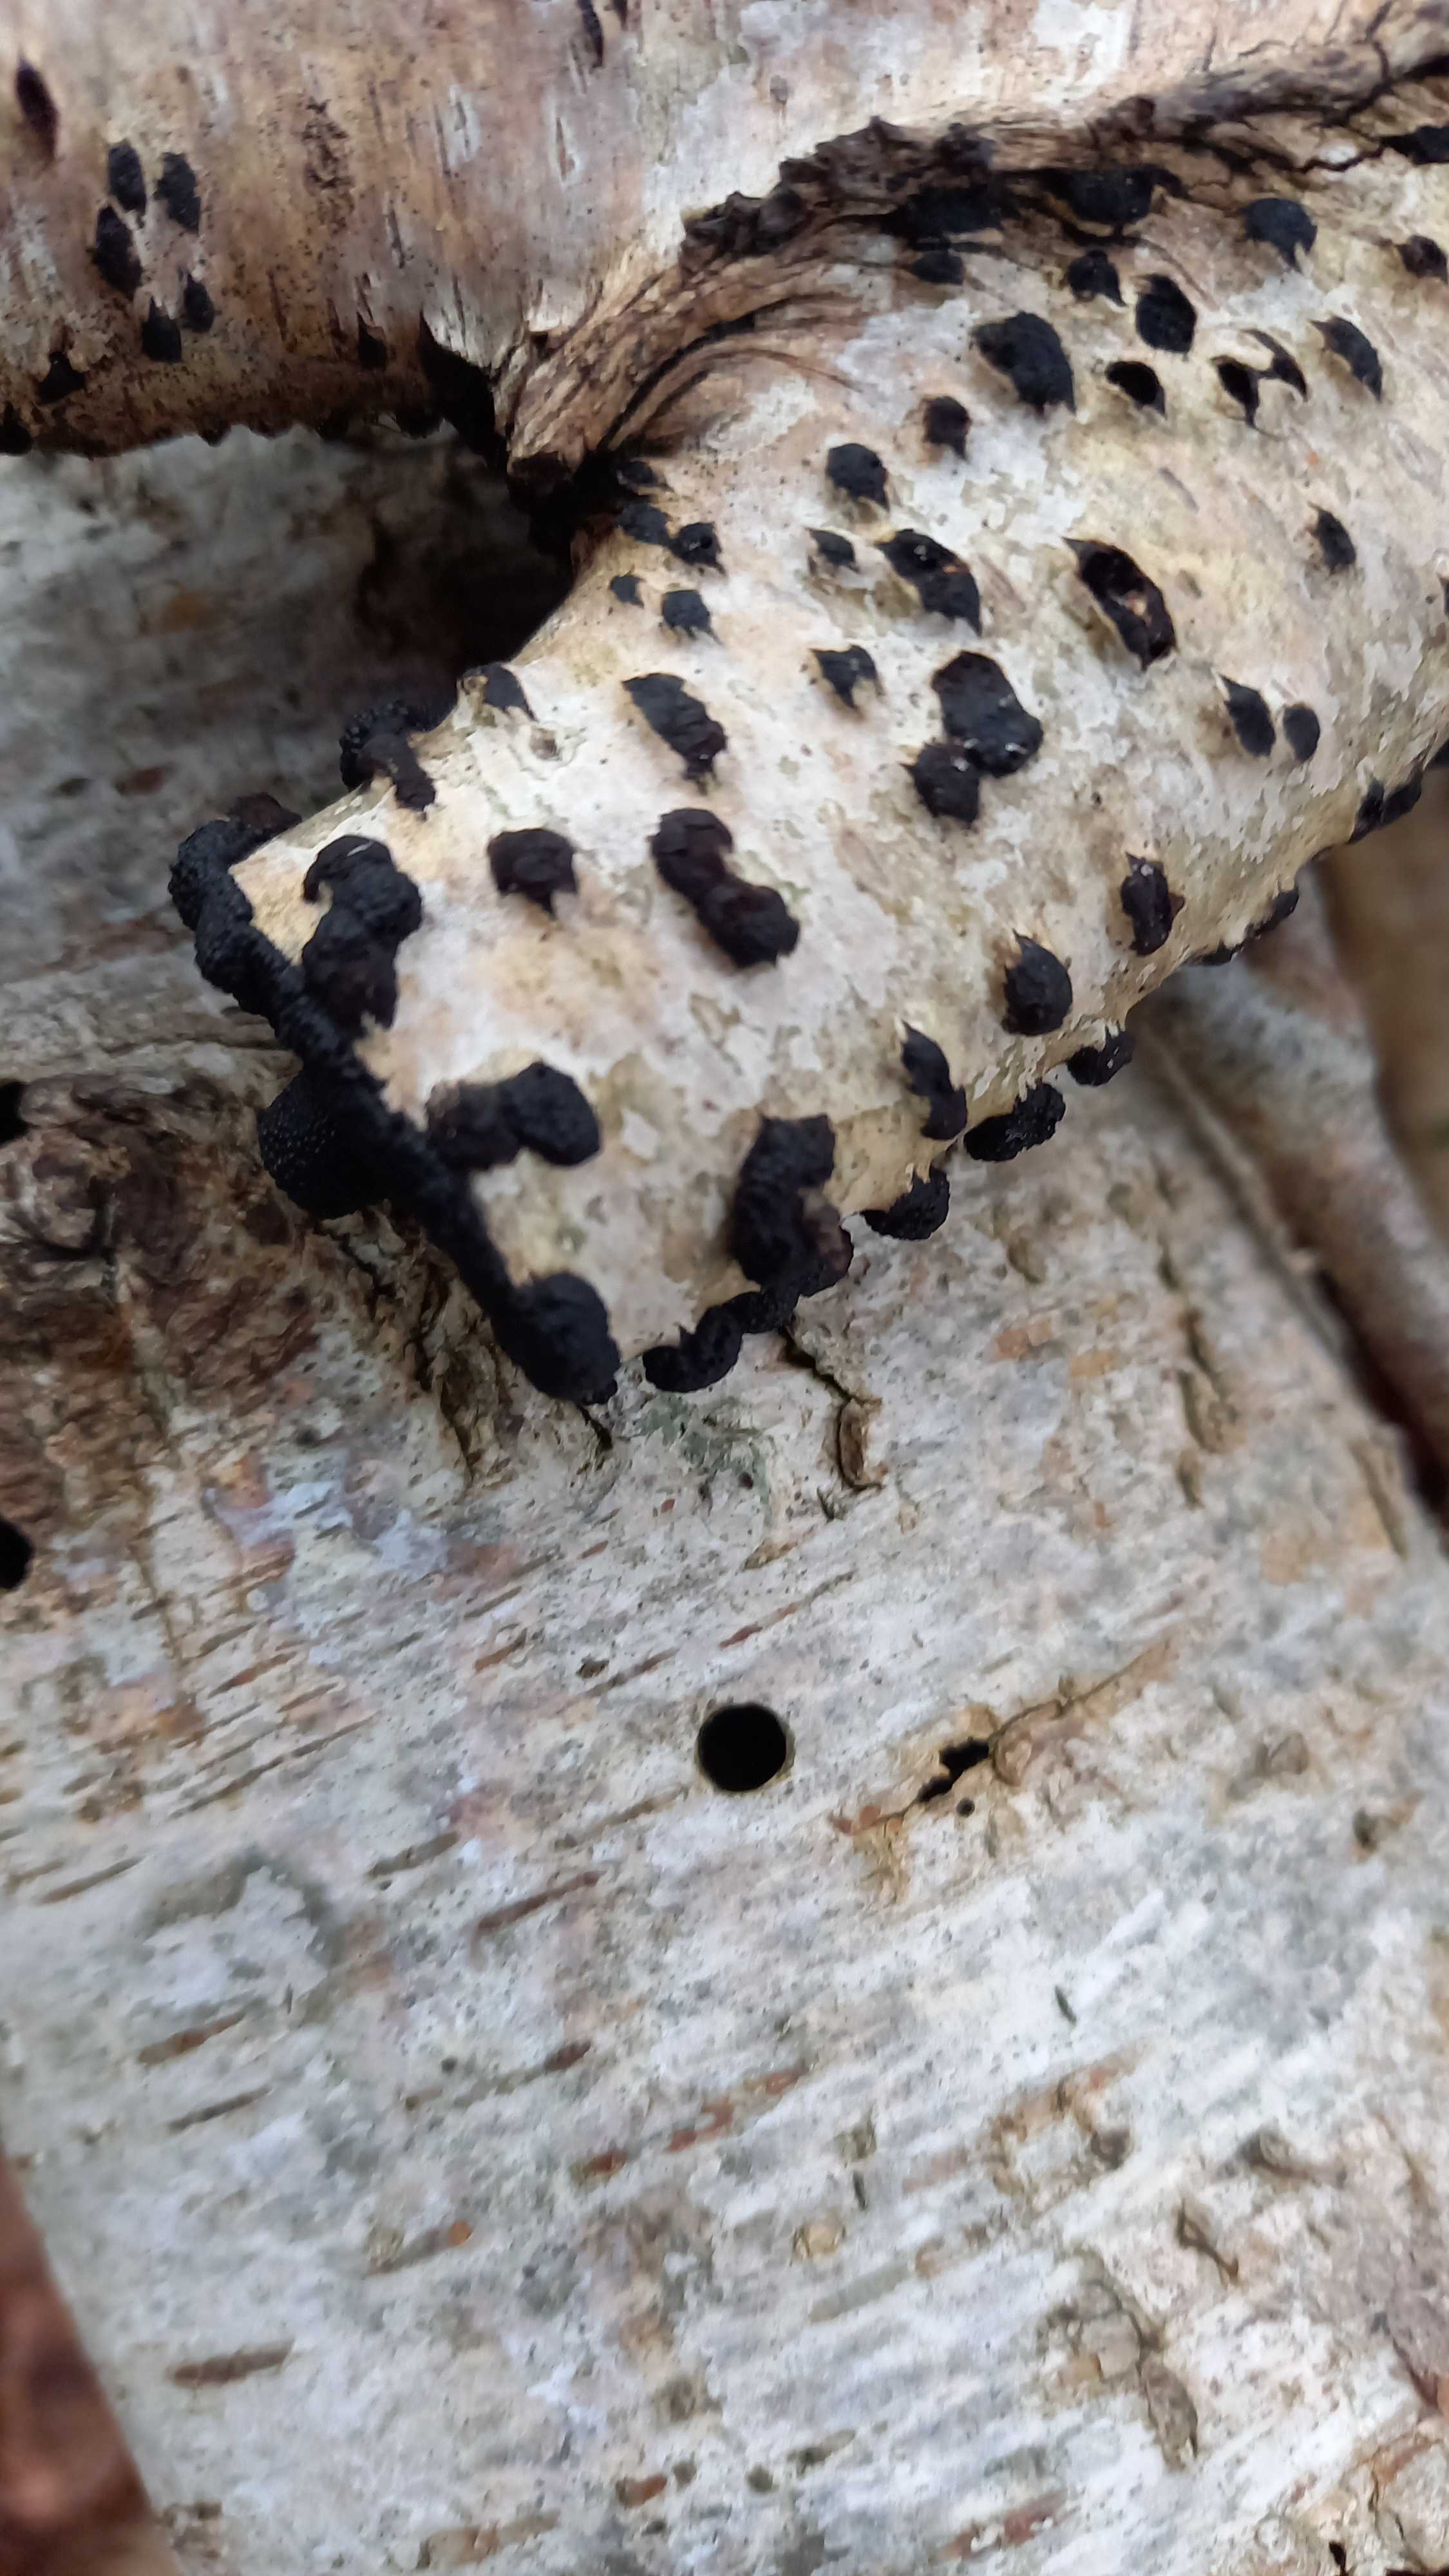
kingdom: Fungi
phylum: Ascomycota
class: Sordariomycetes
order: Xylariales
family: Hypoxylaceae
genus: Jackrogersella
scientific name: Jackrogersella multiformis
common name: foranderlig kulbær
